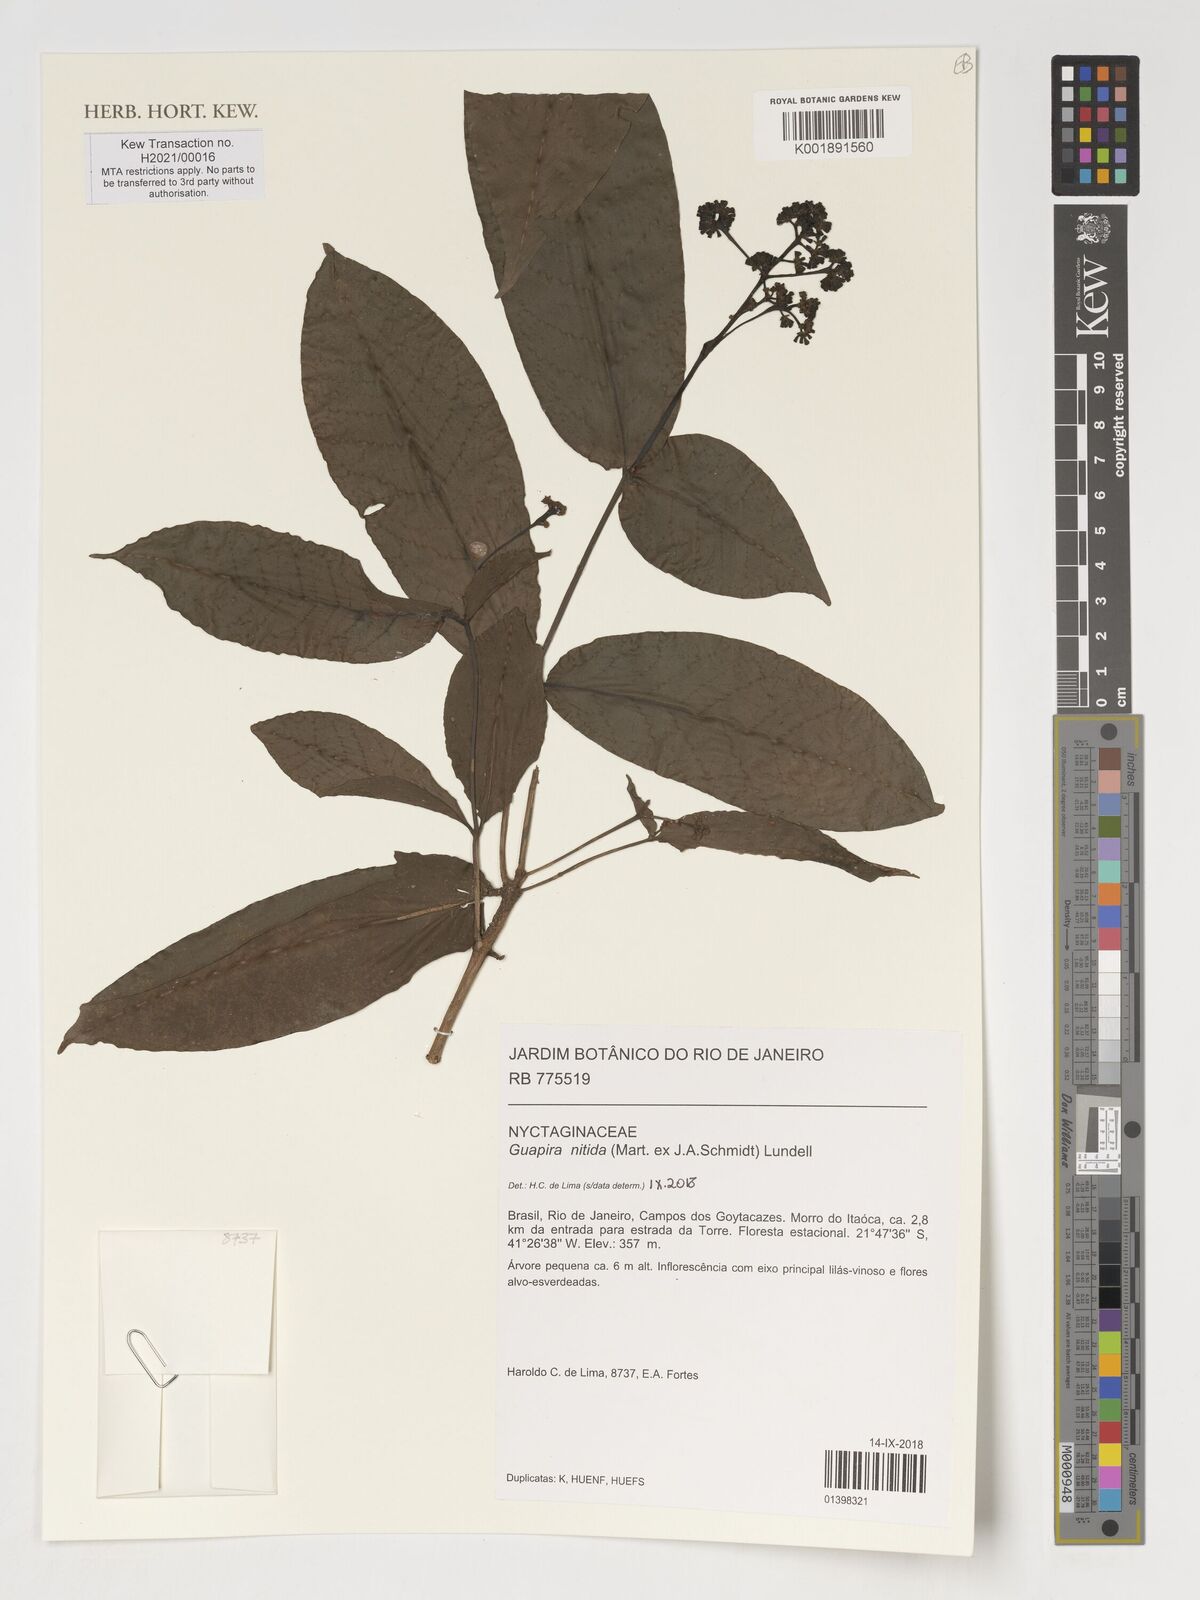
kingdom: Plantae
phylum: Tracheophyta
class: Magnoliopsida
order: Caryophyllales
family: Nyctaginaceae
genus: Guapira
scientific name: Guapira nitida
